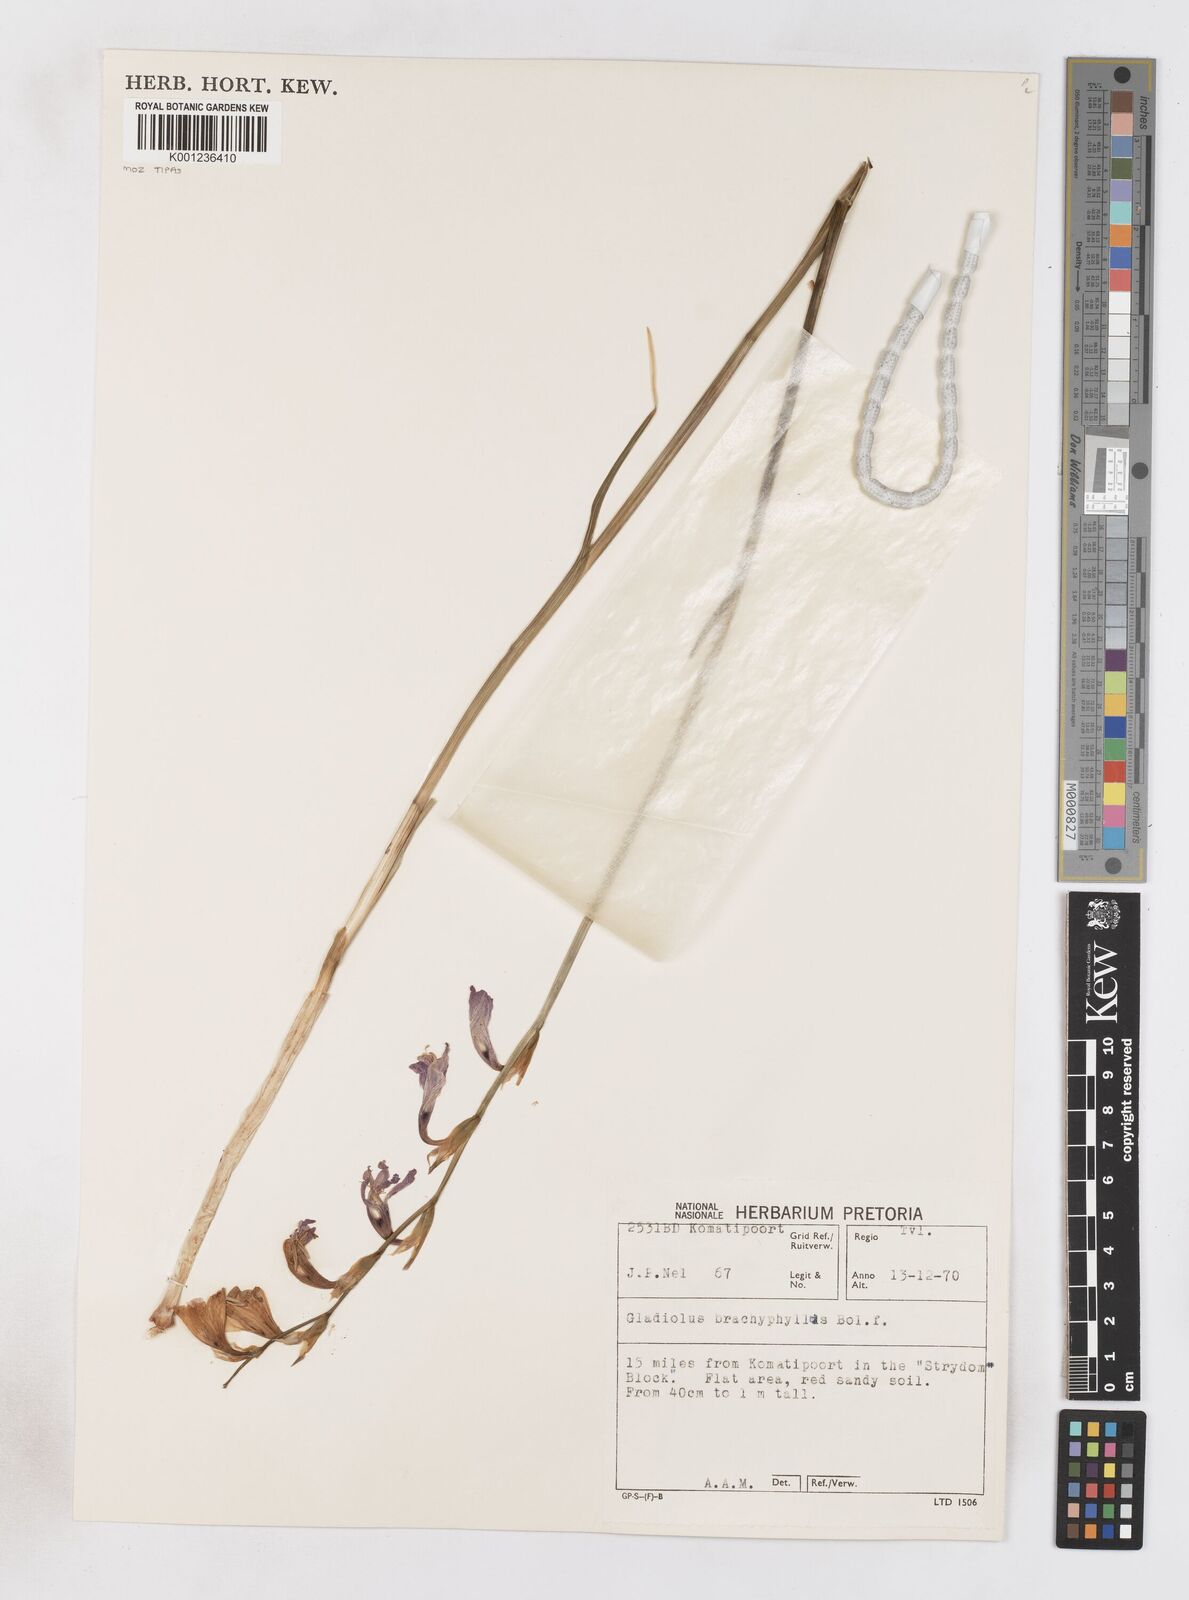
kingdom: Plantae
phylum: Tracheophyta
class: Liliopsida
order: Asparagales
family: Iridaceae
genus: Gladiolus
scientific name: Gladiolus brachyphyllus
